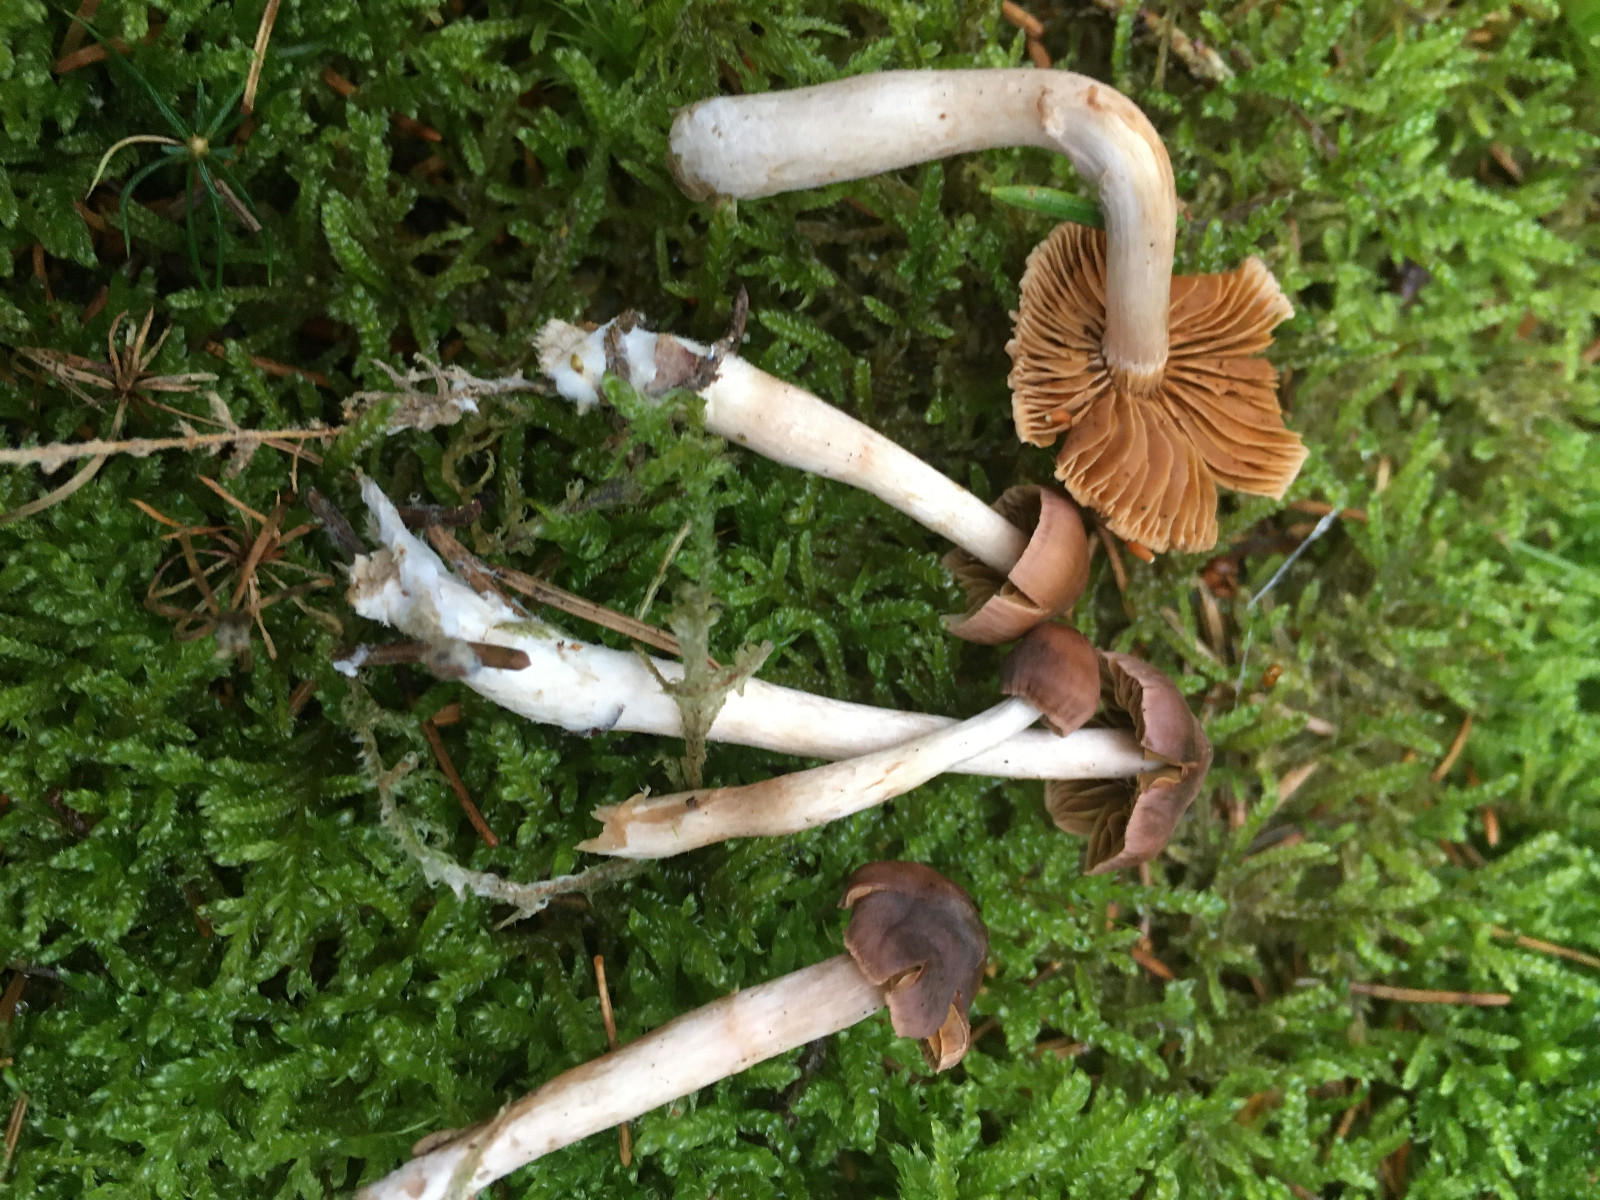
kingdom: Fungi
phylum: Basidiomycota
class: Agaricomycetes
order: Agaricales
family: Cortinariaceae
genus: Cortinarius
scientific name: Cortinarius tenuifulvescens
